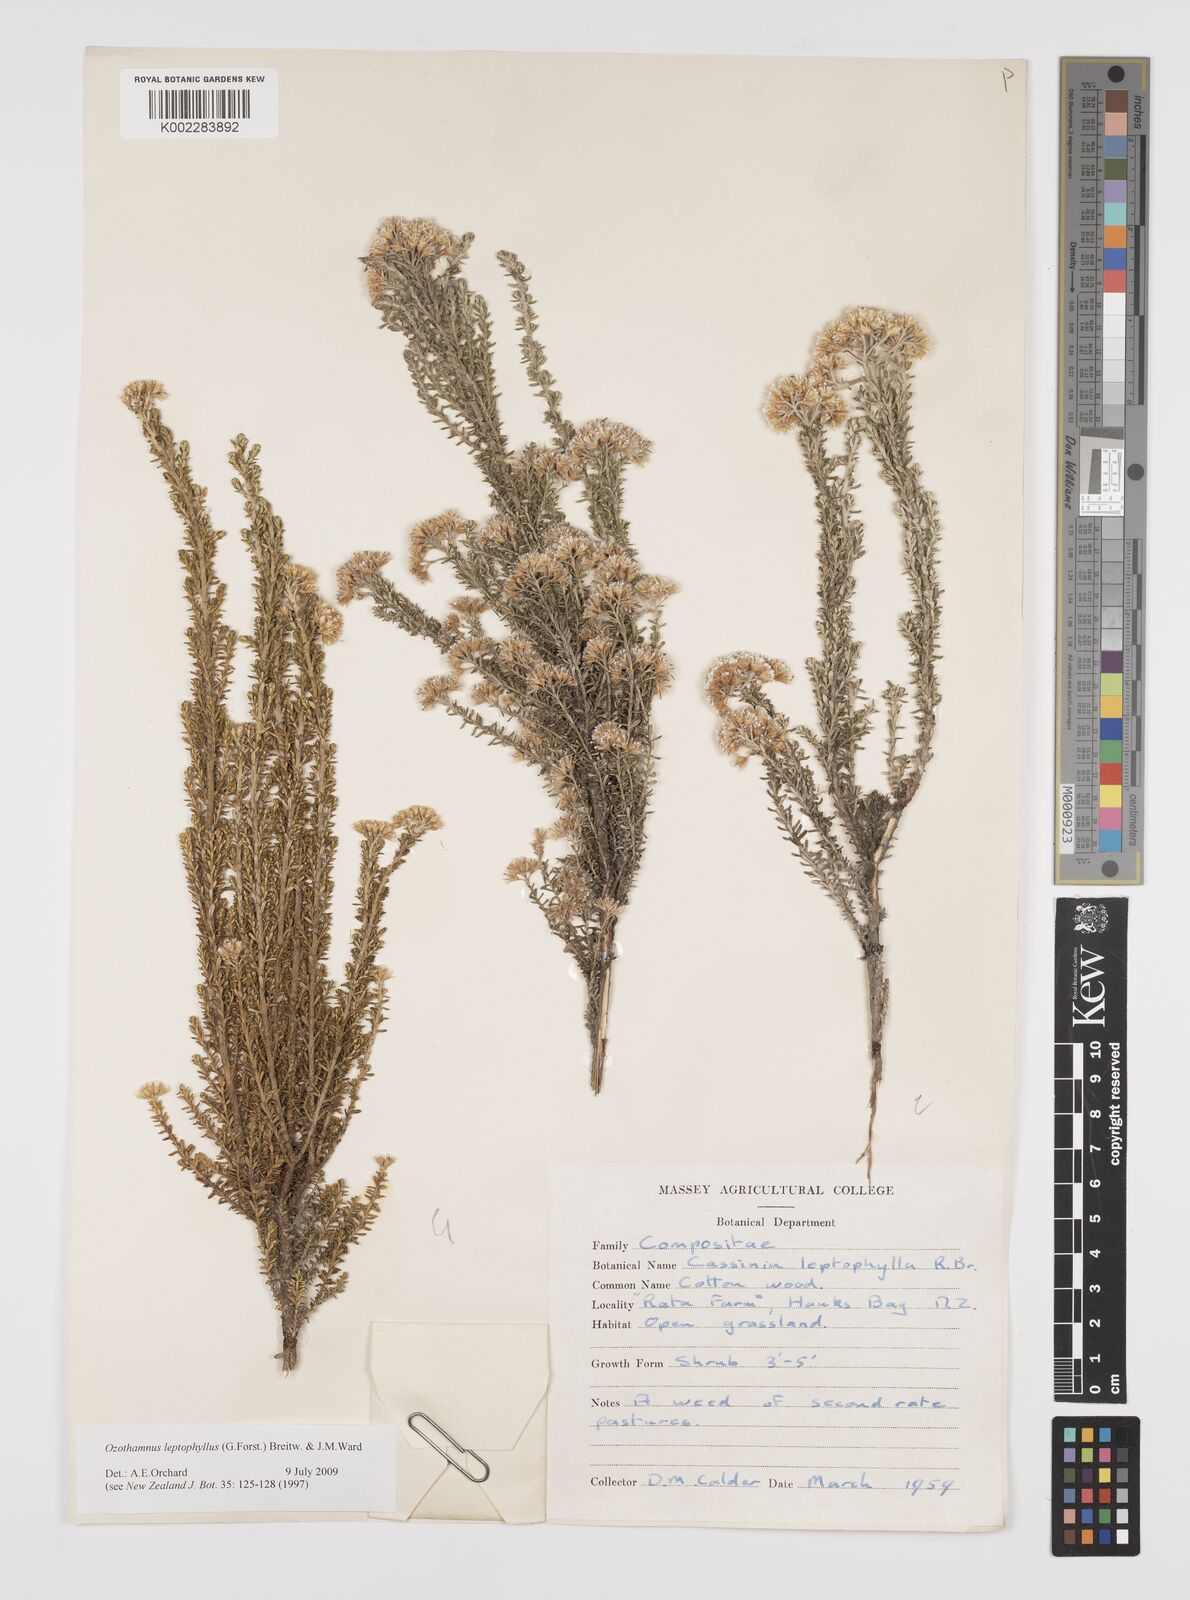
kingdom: Plantae
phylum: Tracheophyta
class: Magnoliopsida
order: Asterales
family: Asteraceae
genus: Ozothamnus
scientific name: Ozothamnus leptophyllus
